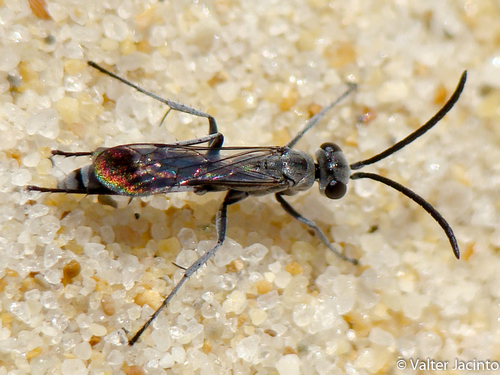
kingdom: Animalia
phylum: Arthropoda
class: Insecta
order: Hymenoptera
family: Pompilidae
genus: Pompilus
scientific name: Pompilus cinereus
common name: Leaden spider wasp
